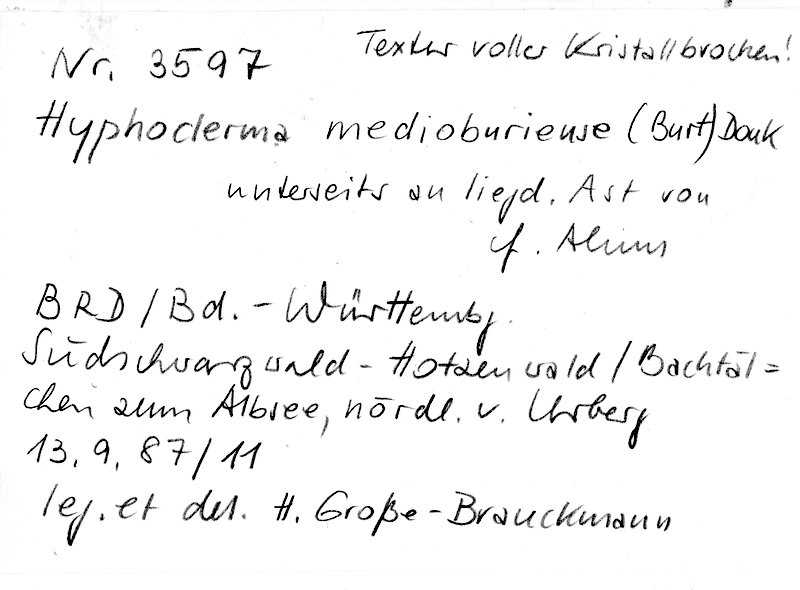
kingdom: Plantae
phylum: Tracheophyta
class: Magnoliopsida
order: Fagales
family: Betulaceae
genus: Alnus
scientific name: Alnus
